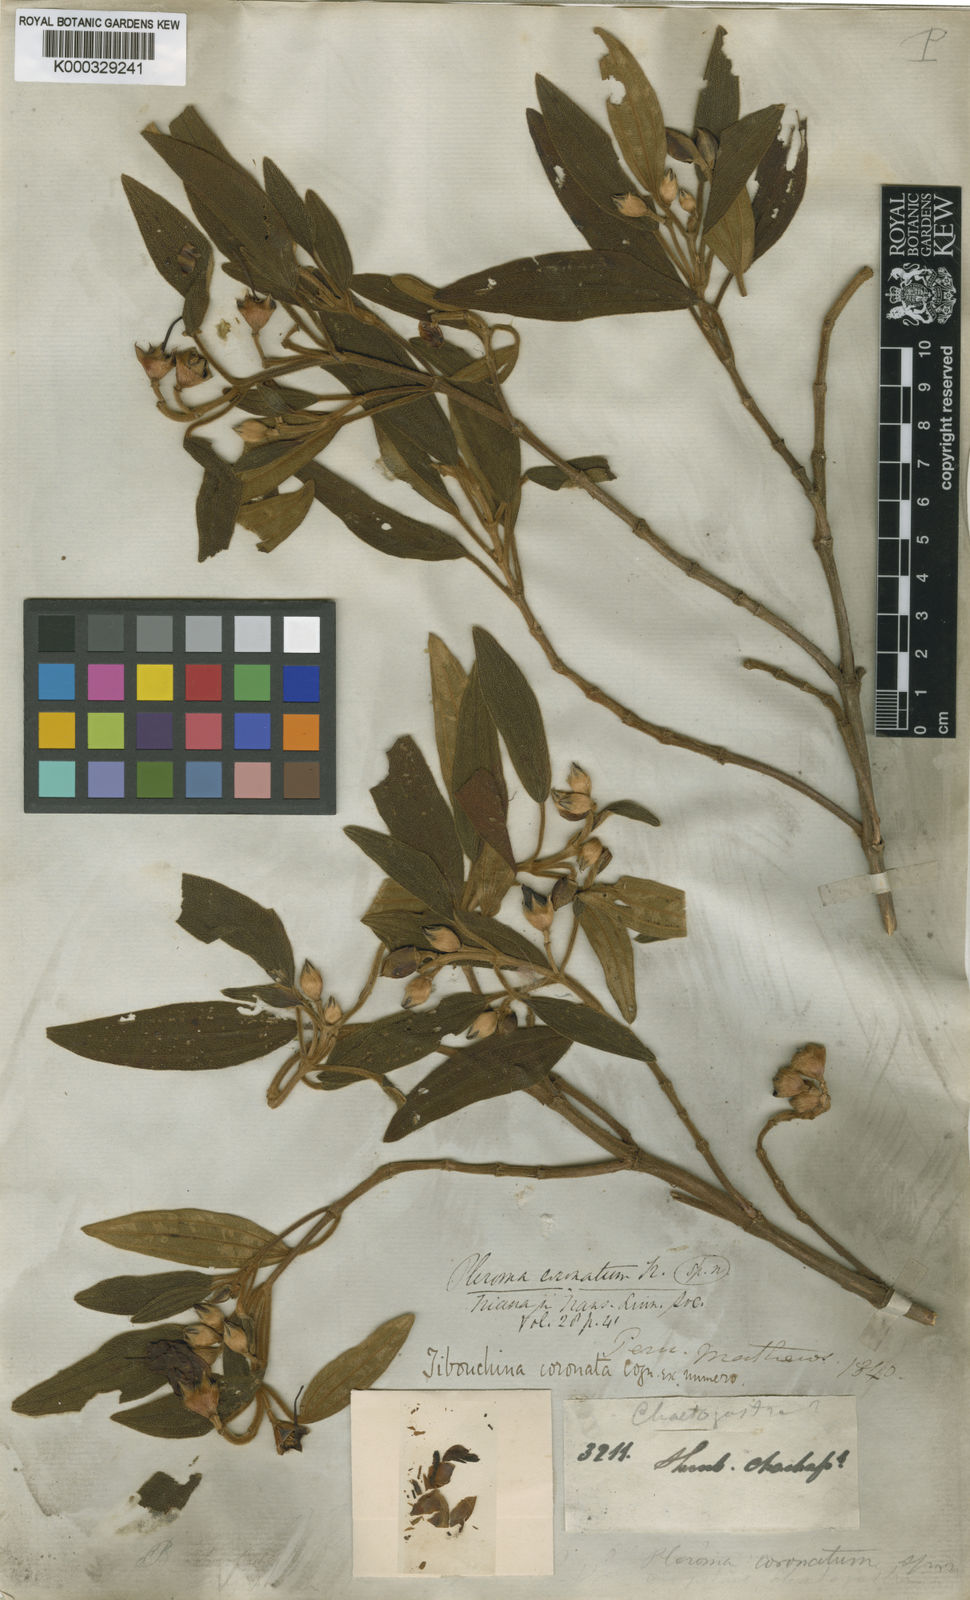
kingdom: Plantae
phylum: Tracheophyta
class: Magnoliopsida
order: Myrtales
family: Melastomataceae
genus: Brachyotum
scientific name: Brachyotum coronatum
